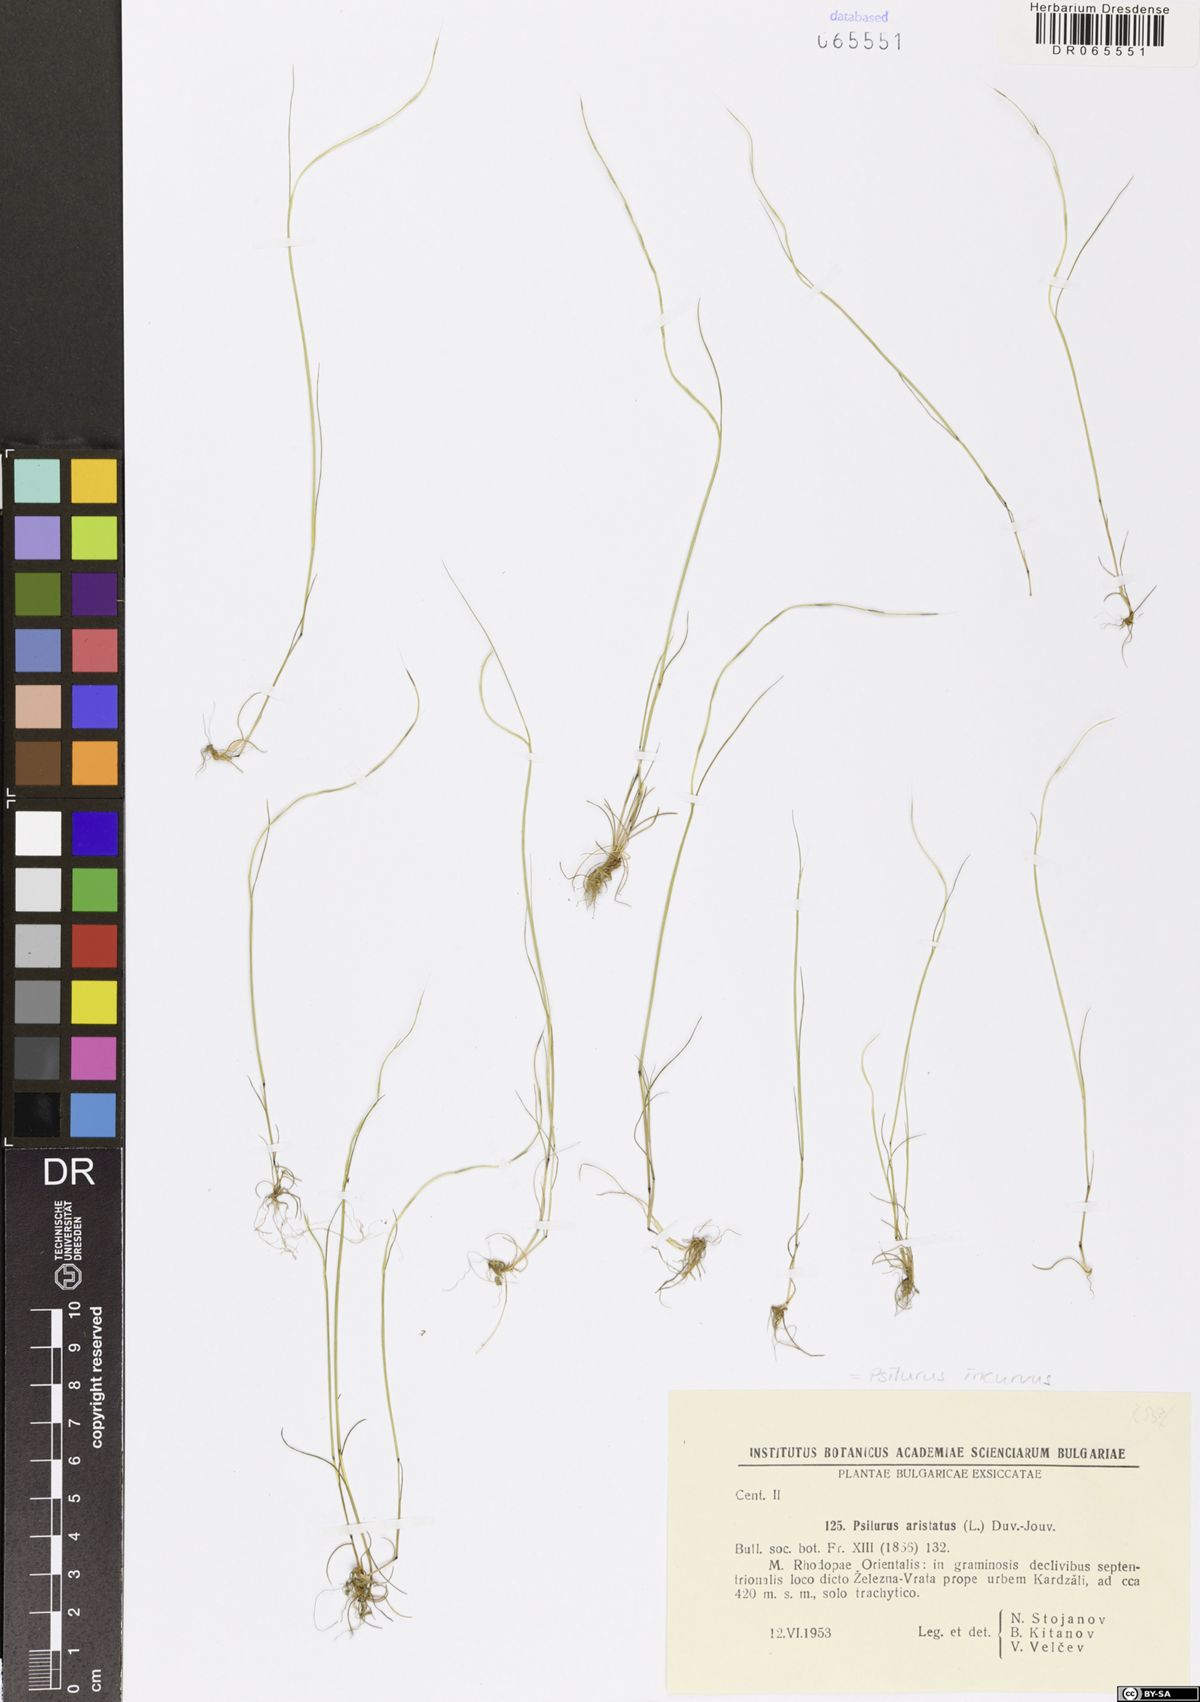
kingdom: Plantae
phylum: Tracheophyta
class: Liliopsida
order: Poales
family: Poaceae
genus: Festuca
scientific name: Festuca incurva
